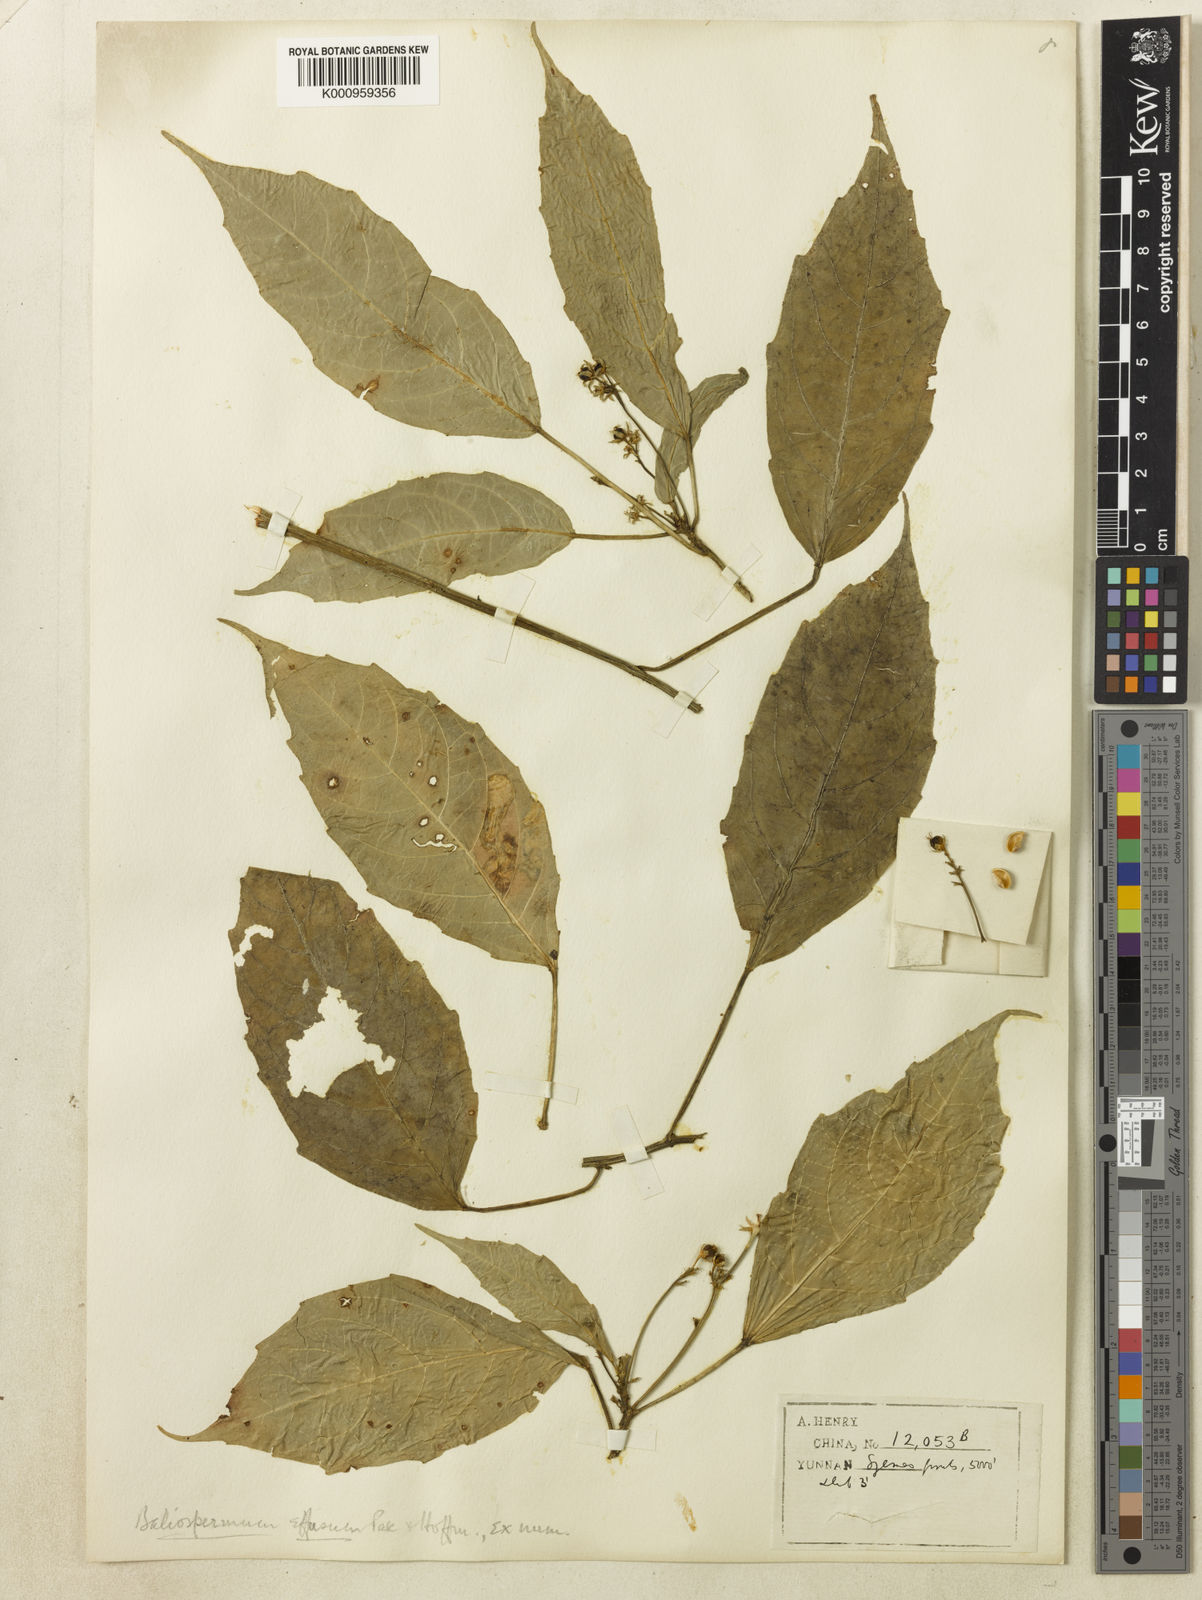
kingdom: Plantae
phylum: Tracheophyta
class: Magnoliopsida
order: Malpighiales
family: Euphorbiaceae
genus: Baliospermum
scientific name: Baliospermum calycinum
